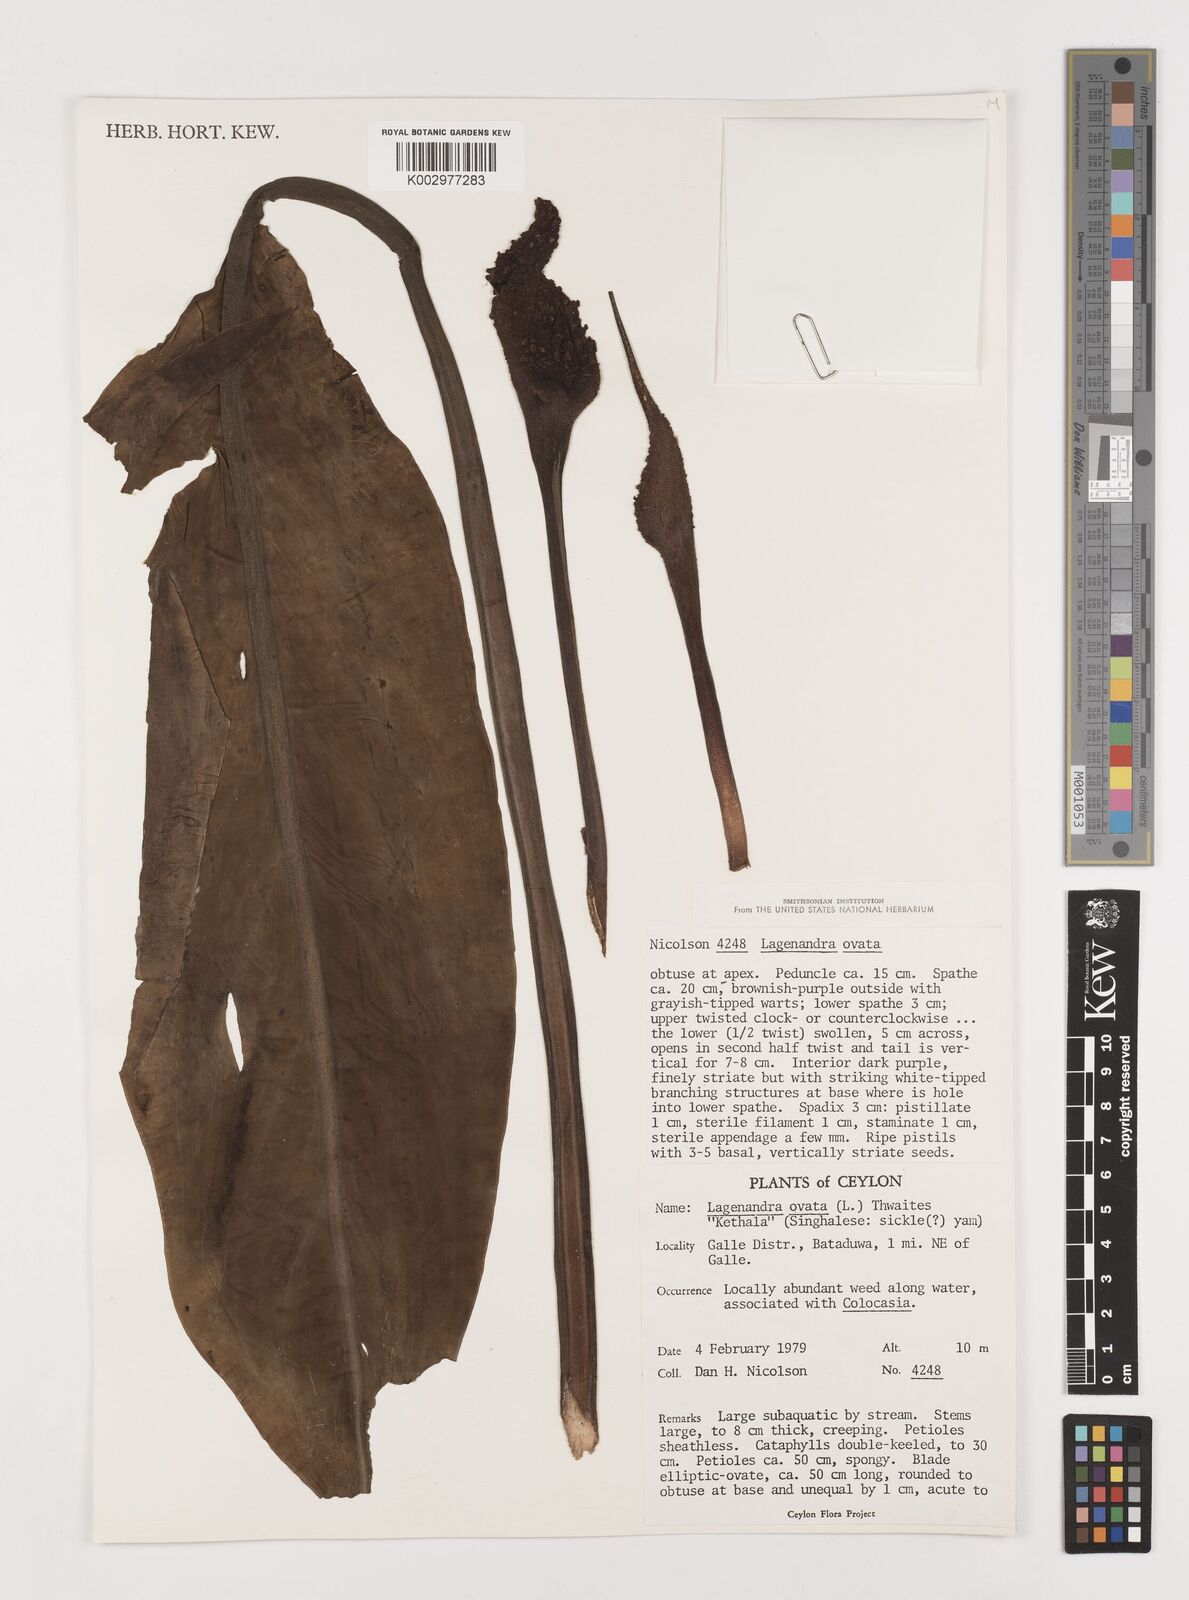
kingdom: Plantae
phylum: Tracheophyta
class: Liliopsida
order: Alismatales
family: Araceae
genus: Lagenandra
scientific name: Lagenandra ovata
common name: Malayan sword
